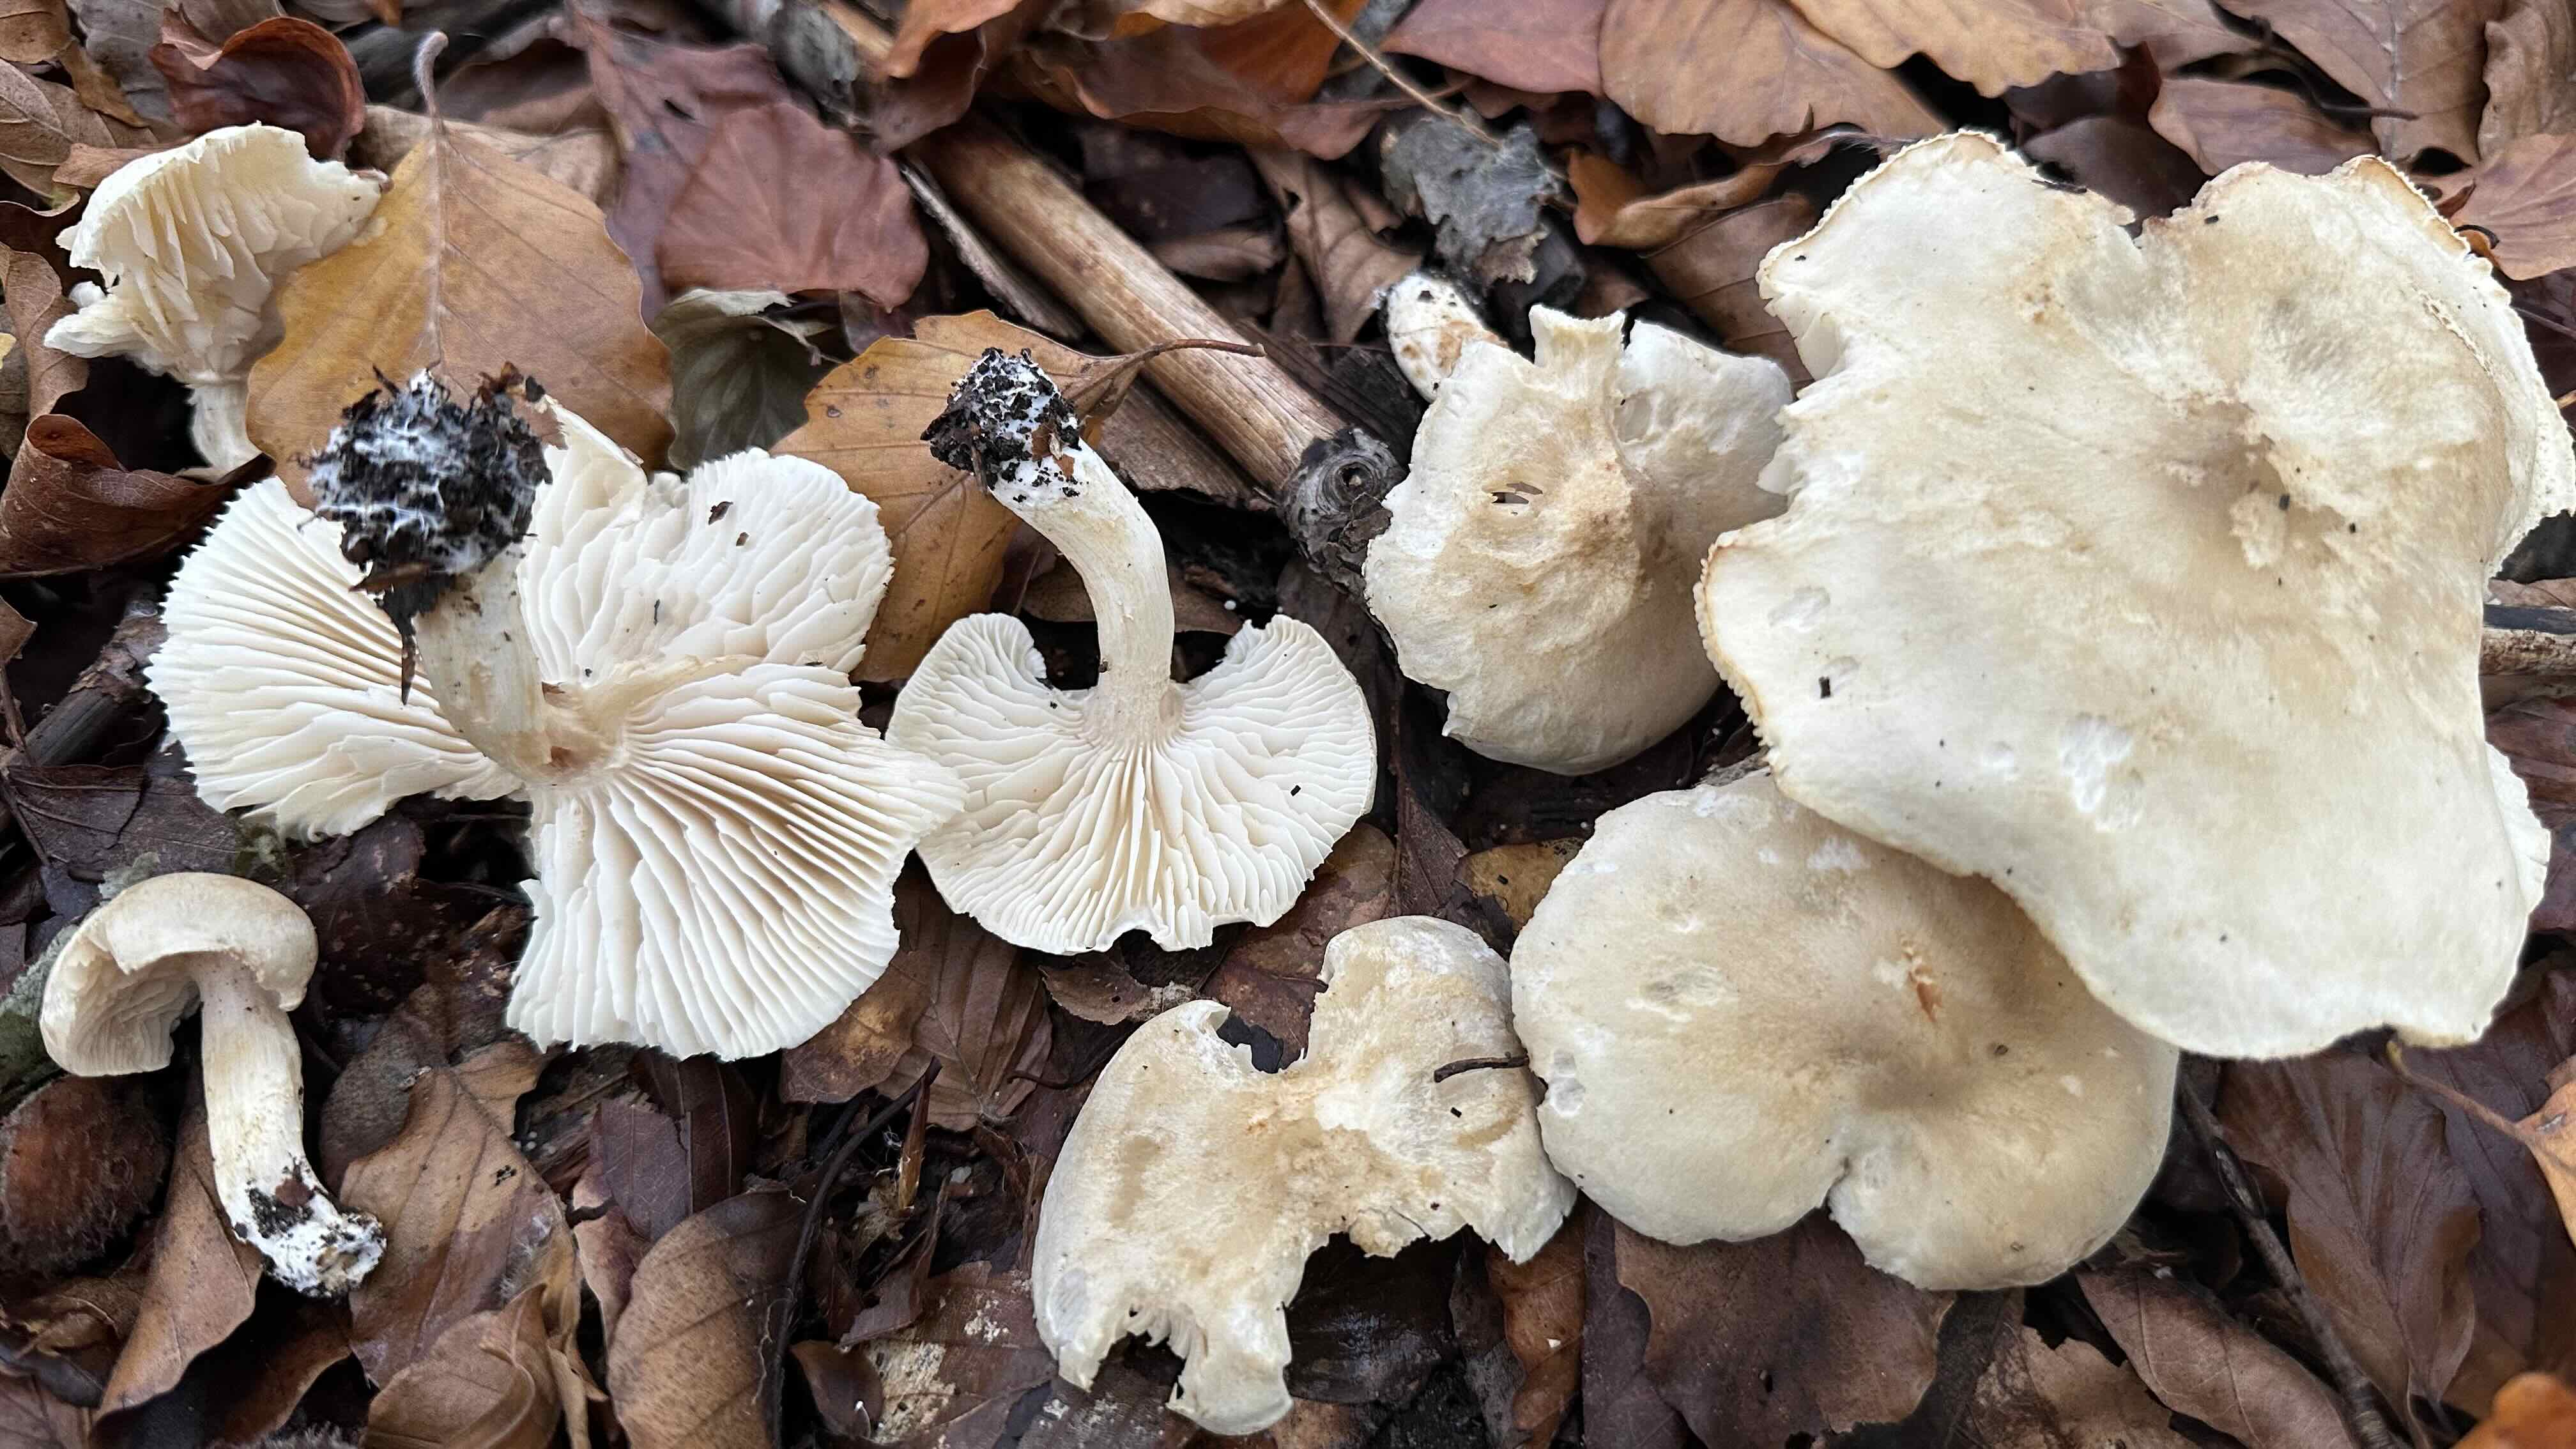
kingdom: Fungi
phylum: Basidiomycota
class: Agaricomycetes
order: Agaricales
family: Tricholomataceae
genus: Tricholoma
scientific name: Tricholoma lascivum
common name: stinkende ridderhat
